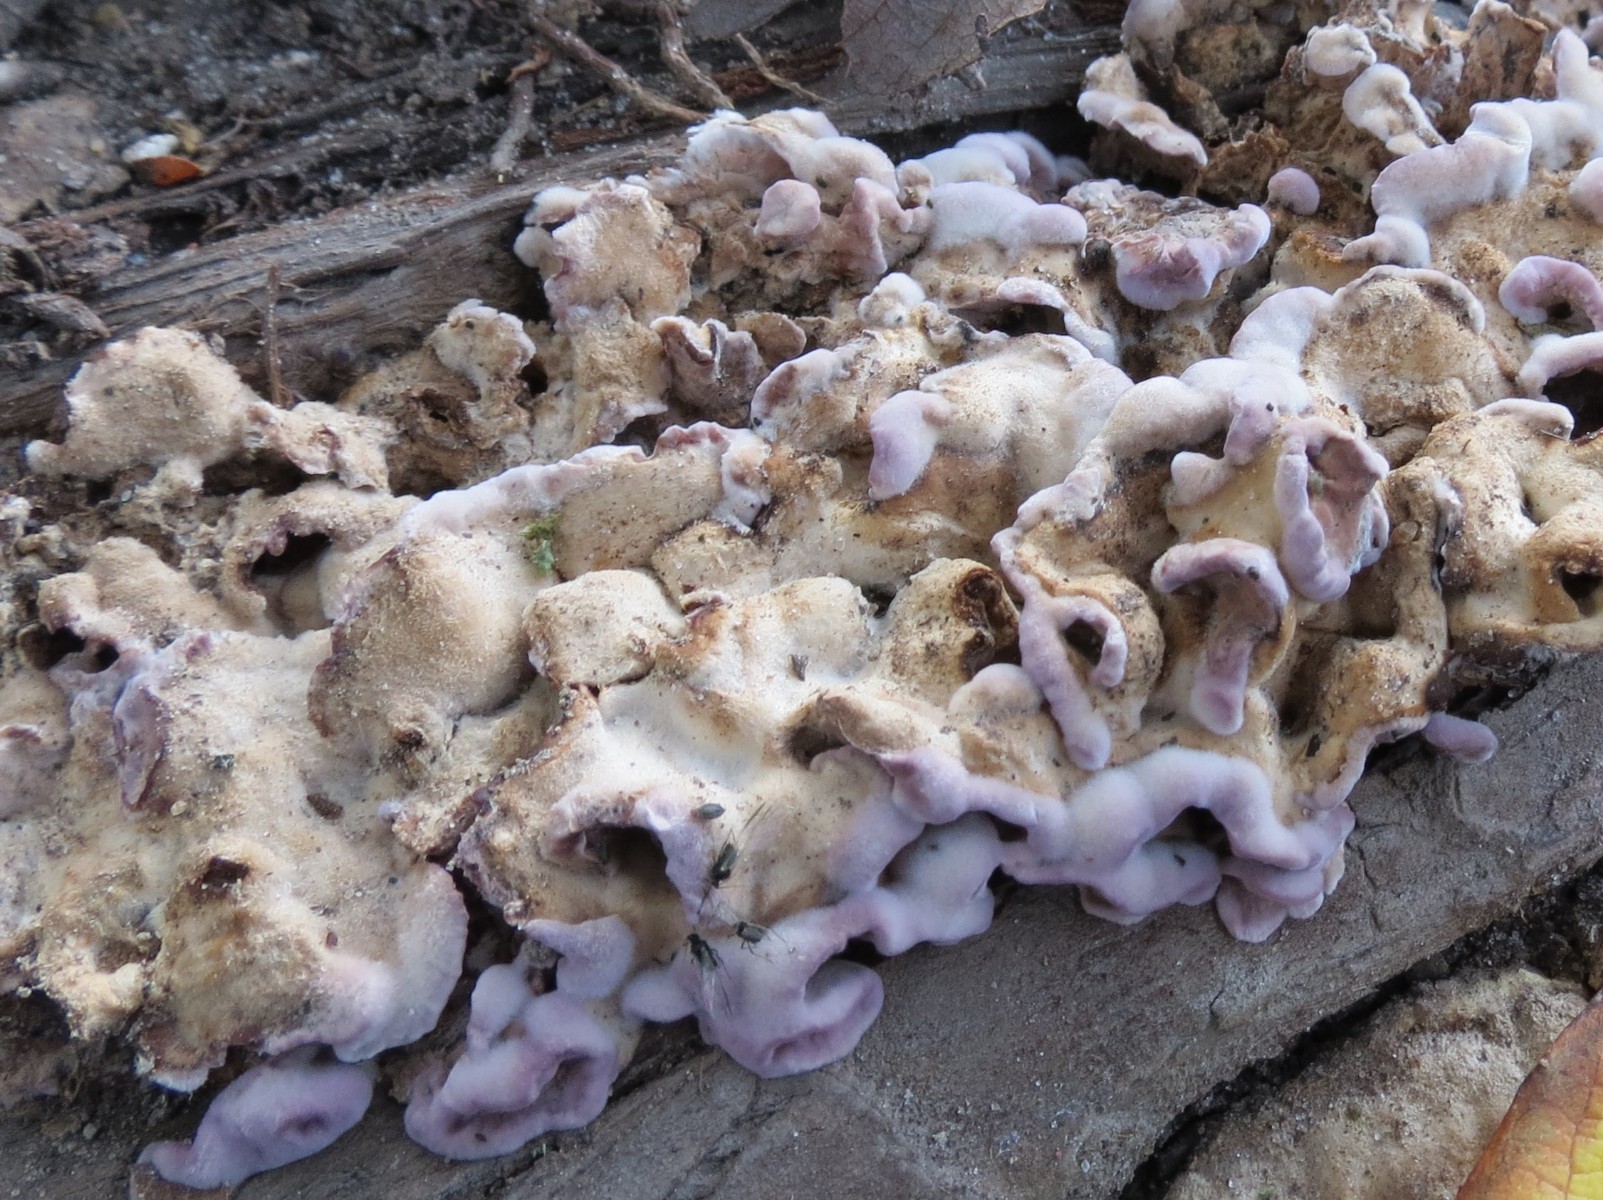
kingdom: Fungi
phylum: Basidiomycota
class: Agaricomycetes
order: Agaricales
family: Cyphellaceae
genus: Chondrostereum
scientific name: Chondrostereum purpureum
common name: purpurlædersvamp
